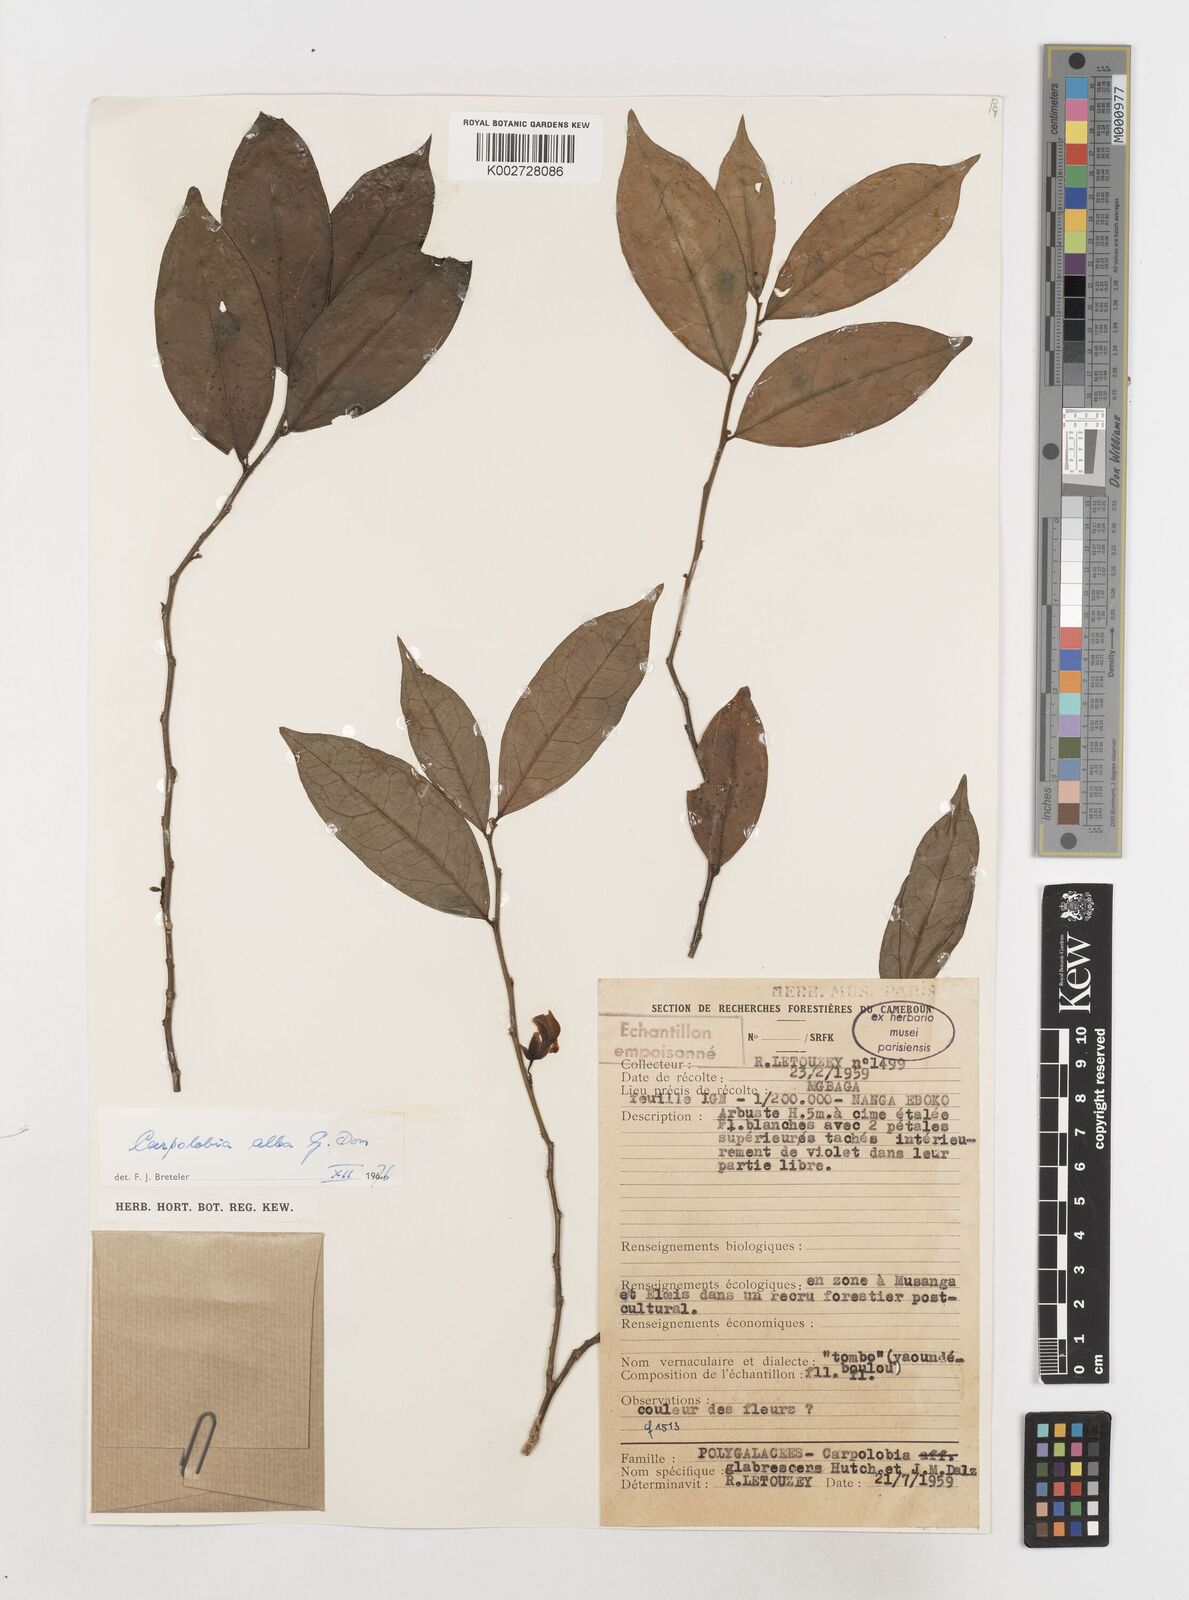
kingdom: Plantae
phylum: Tracheophyta
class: Magnoliopsida
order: Fabales
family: Polygalaceae
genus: Carpolobia
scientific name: Carpolobia alba
